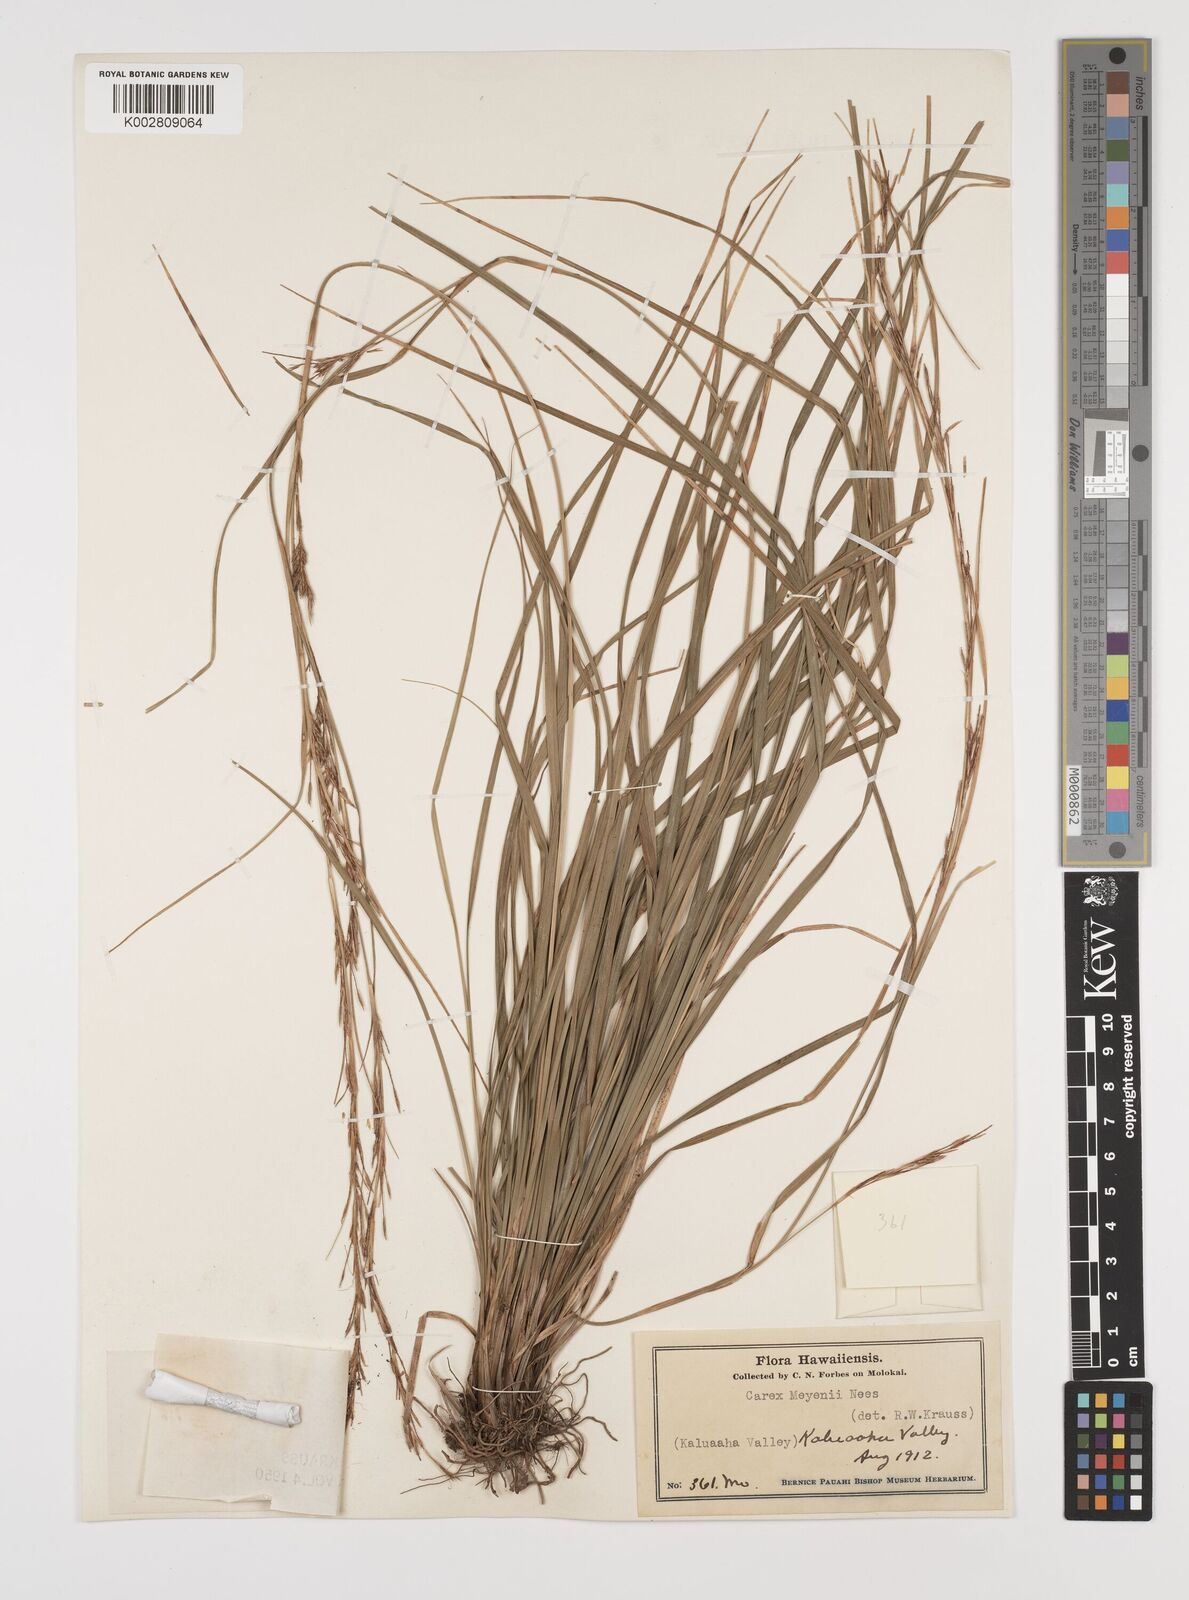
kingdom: Plantae
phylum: Tracheophyta
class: Liliopsida
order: Poales
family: Cyperaceae
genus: Carex
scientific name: Carex brunnea
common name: Greater brown sedge
